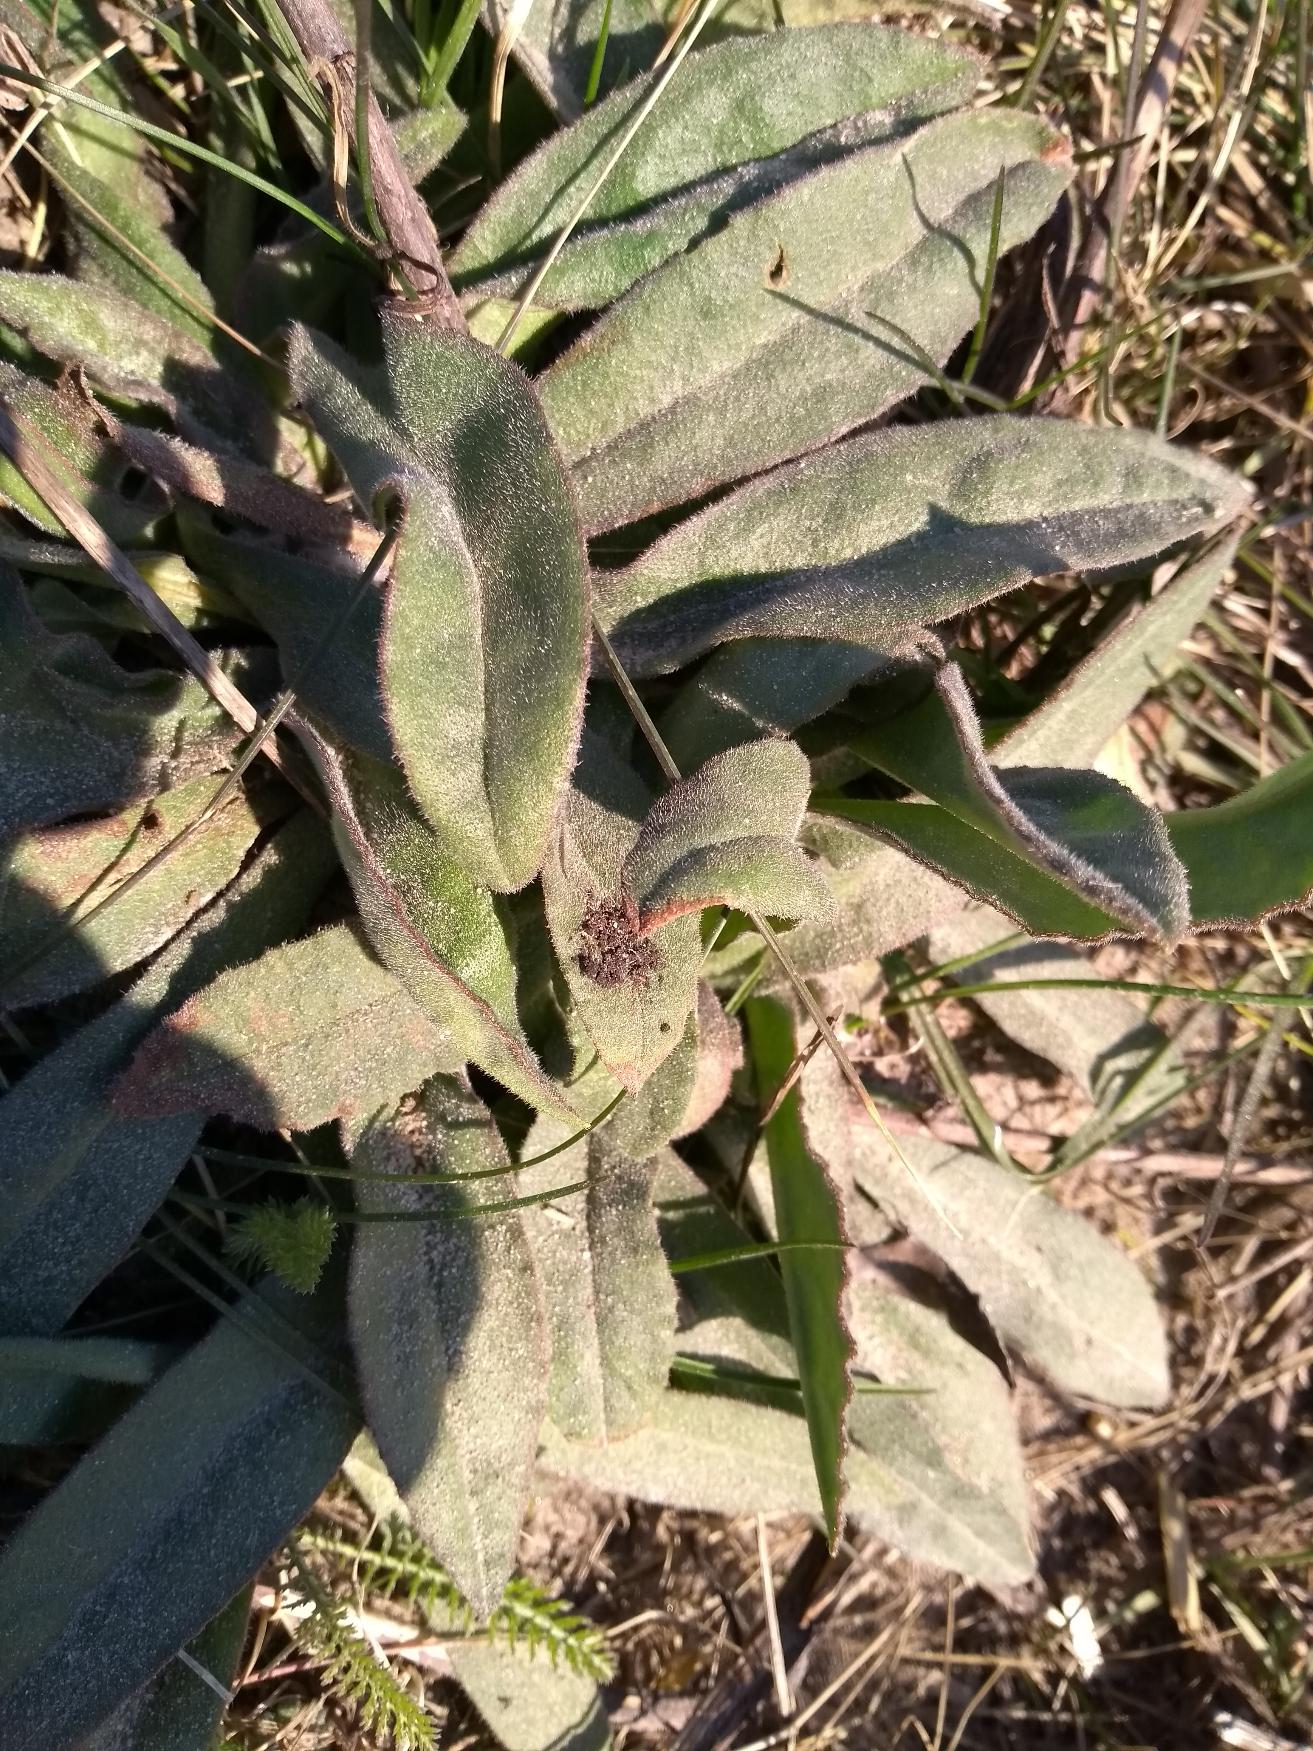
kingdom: Plantae
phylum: Tracheophyta
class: Magnoliopsida
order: Boraginales
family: Boraginaceae
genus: Anchusa
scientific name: Anchusa officinalis
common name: Læge-oksetunge
